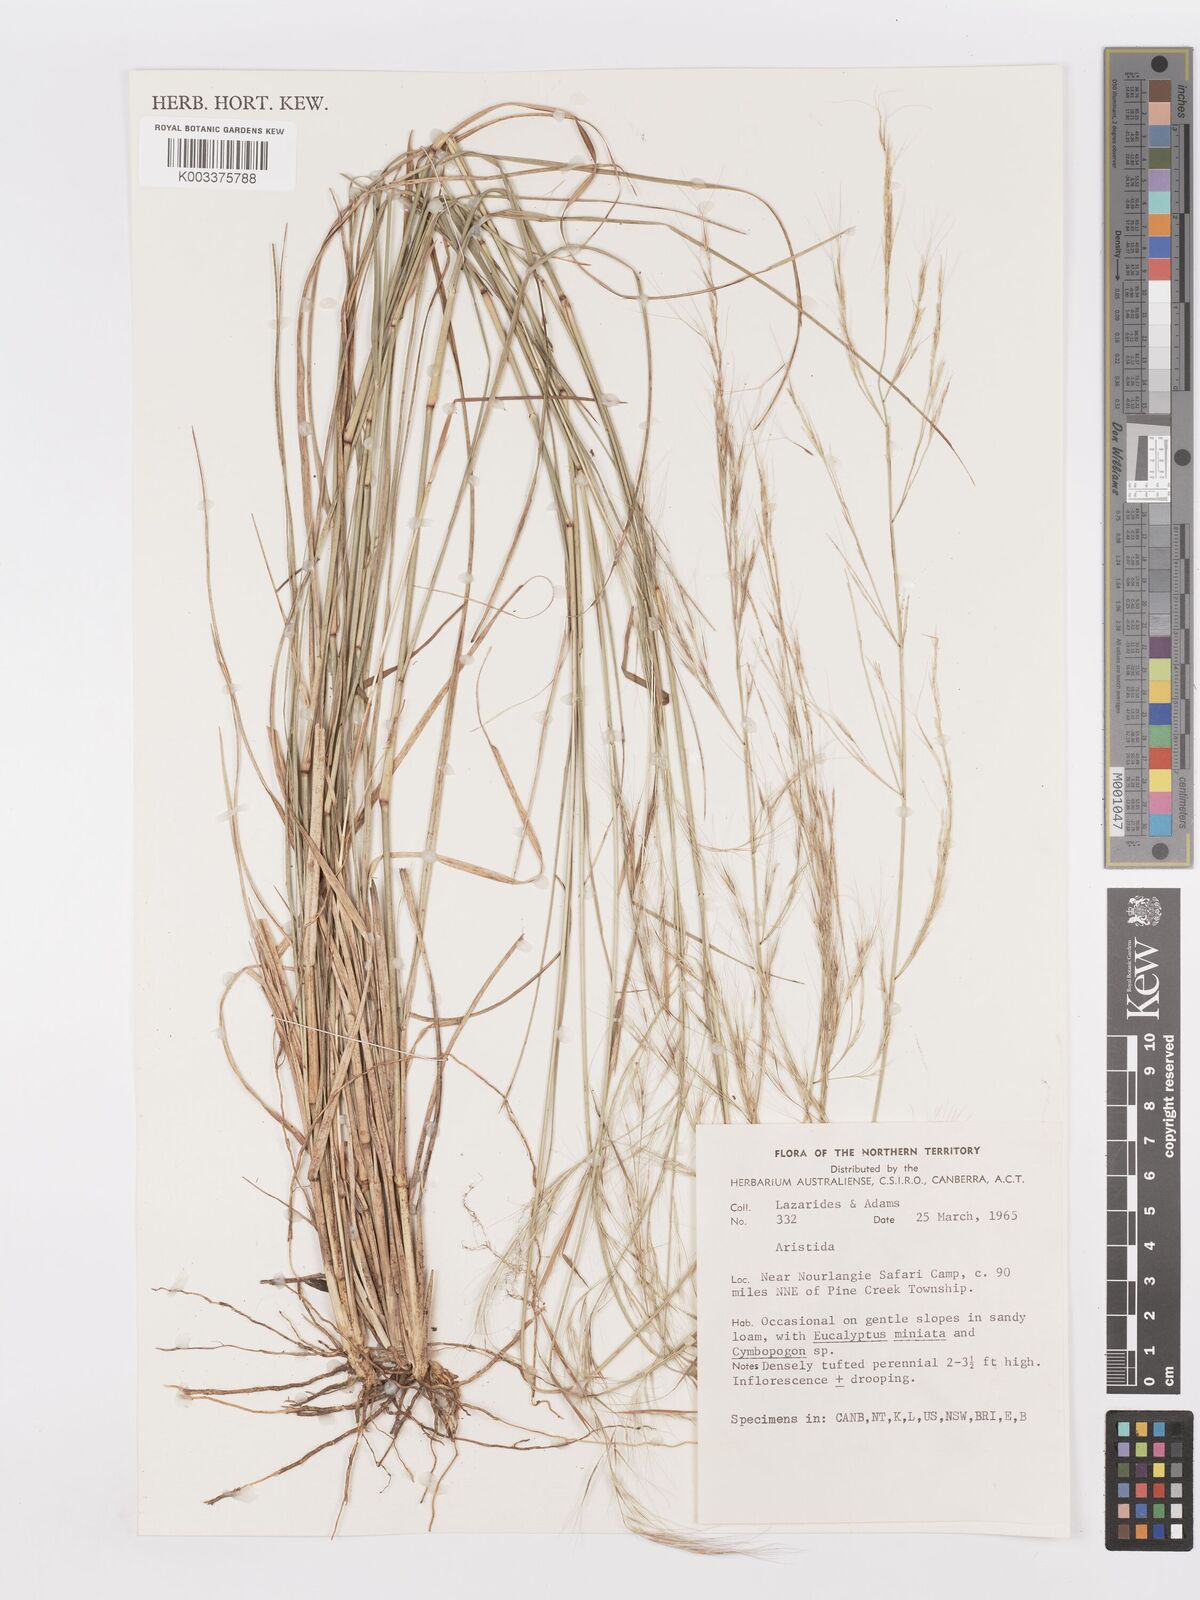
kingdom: Plantae
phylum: Tracheophyta
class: Liliopsida
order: Poales
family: Poaceae
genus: Aristida
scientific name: Aristida
